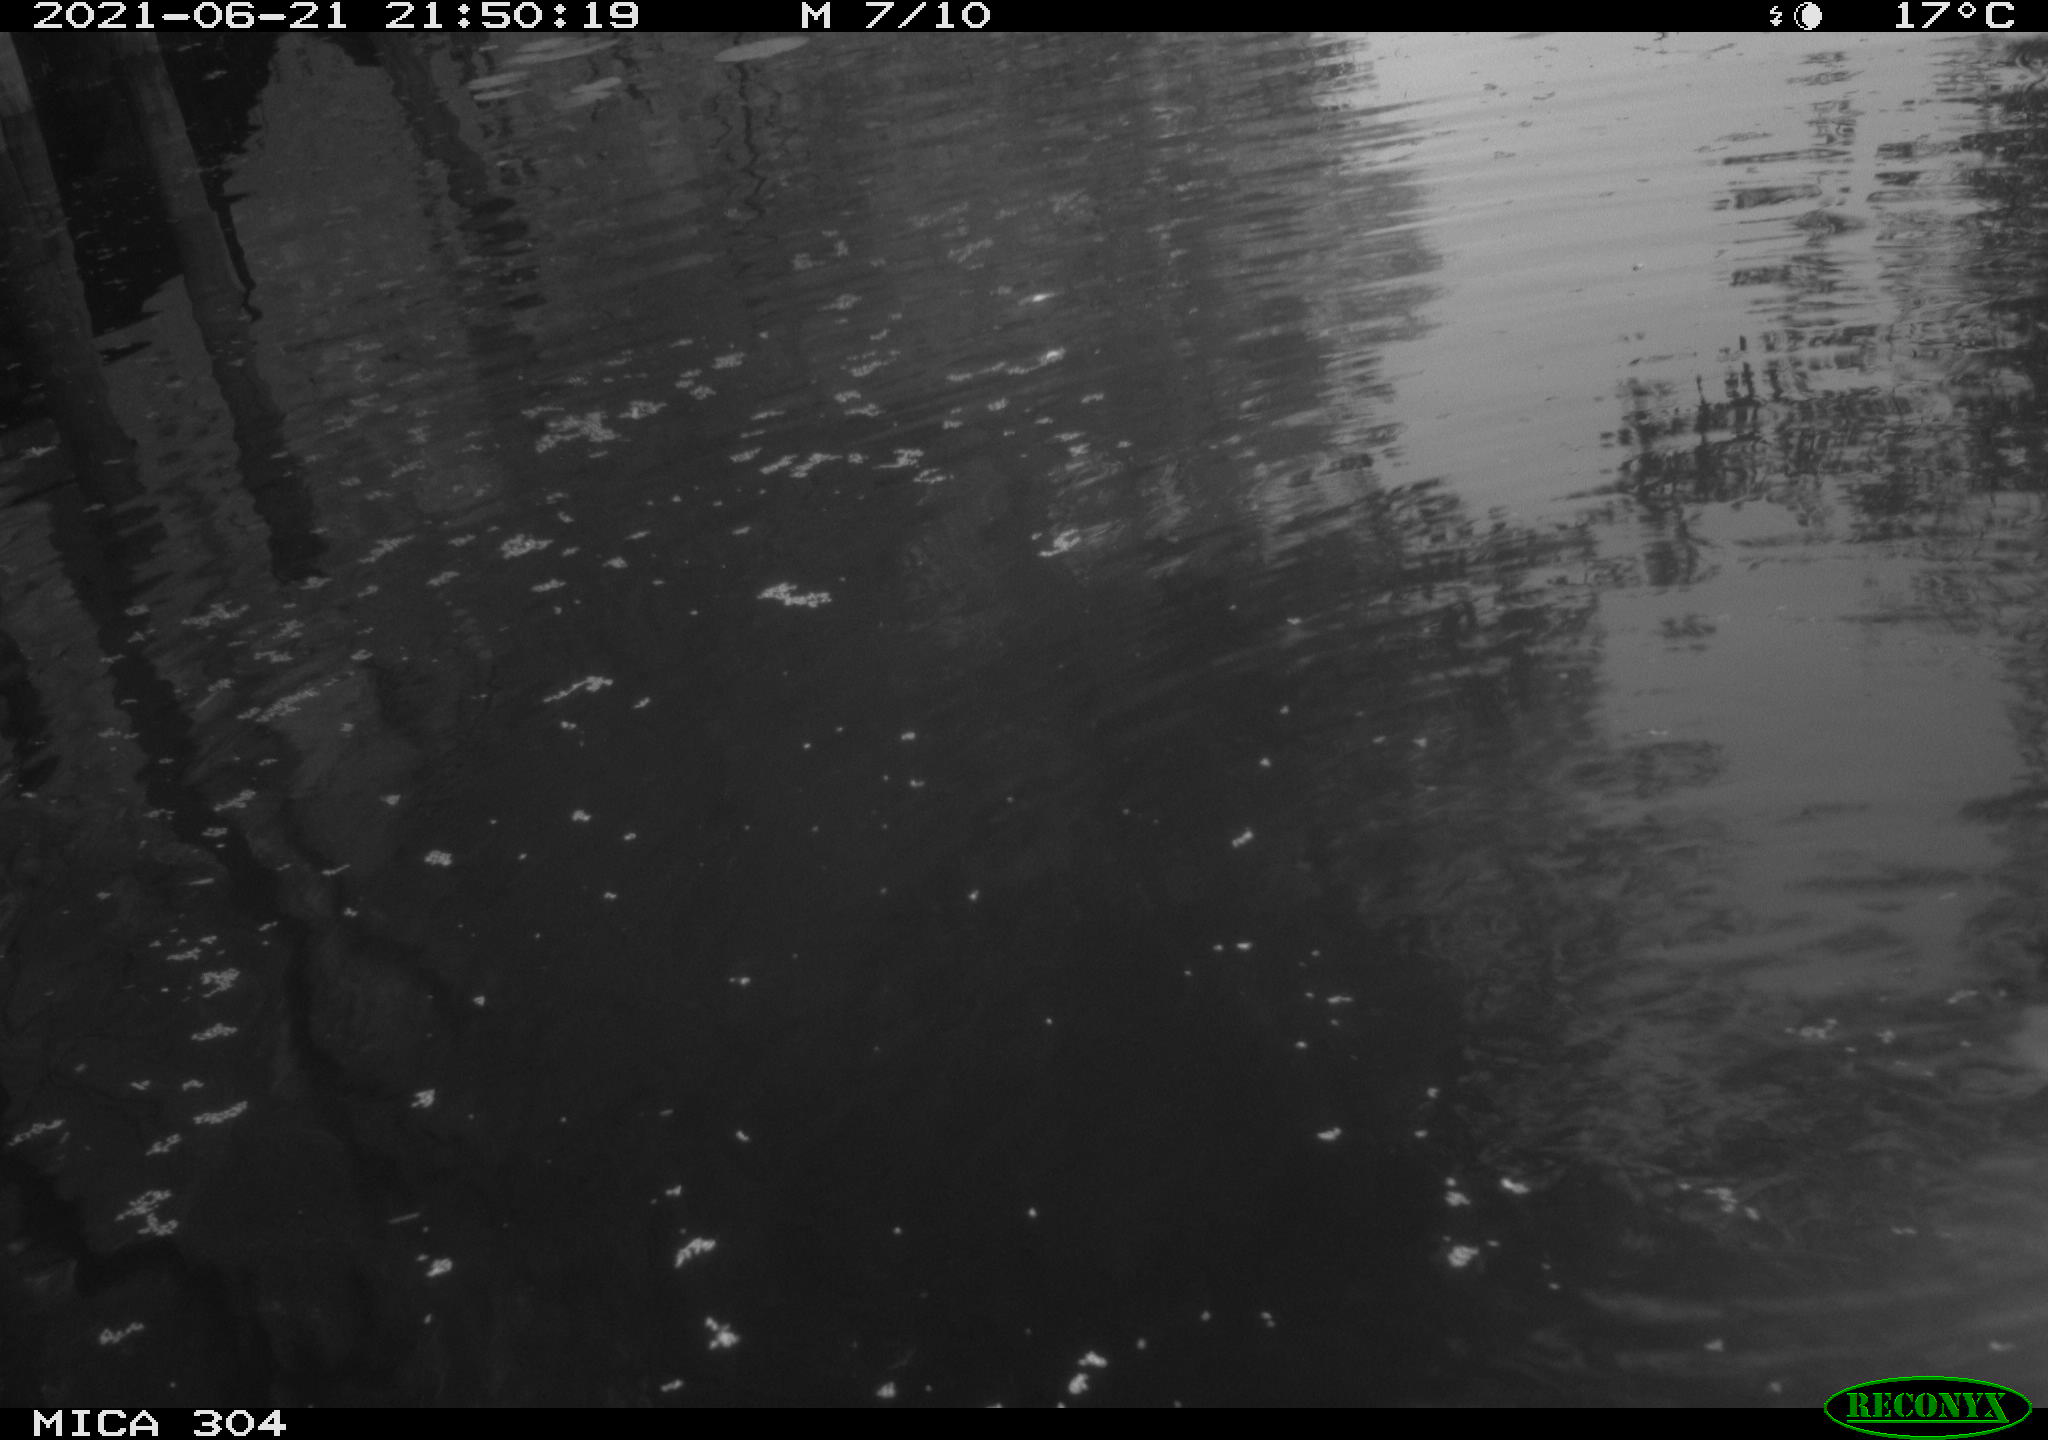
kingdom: Animalia
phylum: Chordata
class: Aves
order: Gruiformes
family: Rallidae
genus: Fulica
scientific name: Fulica atra
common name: Eurasian coot
